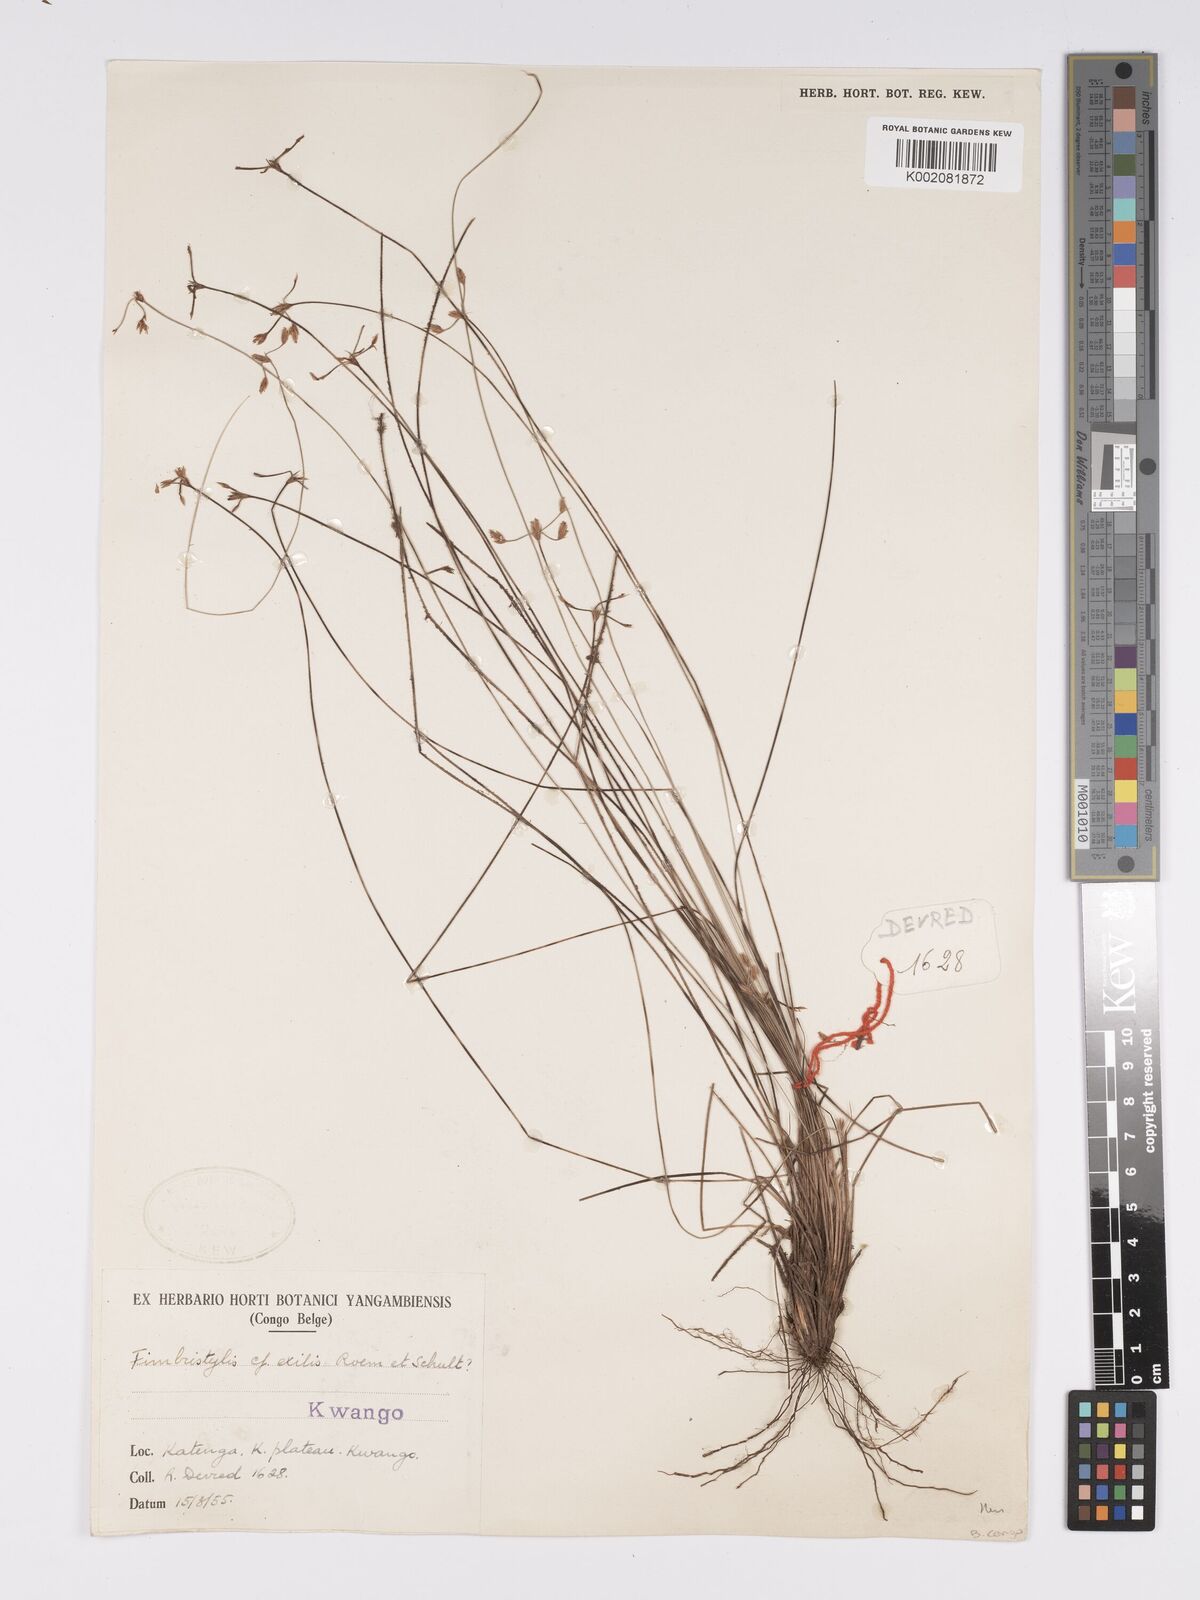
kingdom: Plantae
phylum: Tracheophyta
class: Liliopsida
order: Poales
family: Cyperaceae
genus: Bulbostylis
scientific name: Bulbostylis
